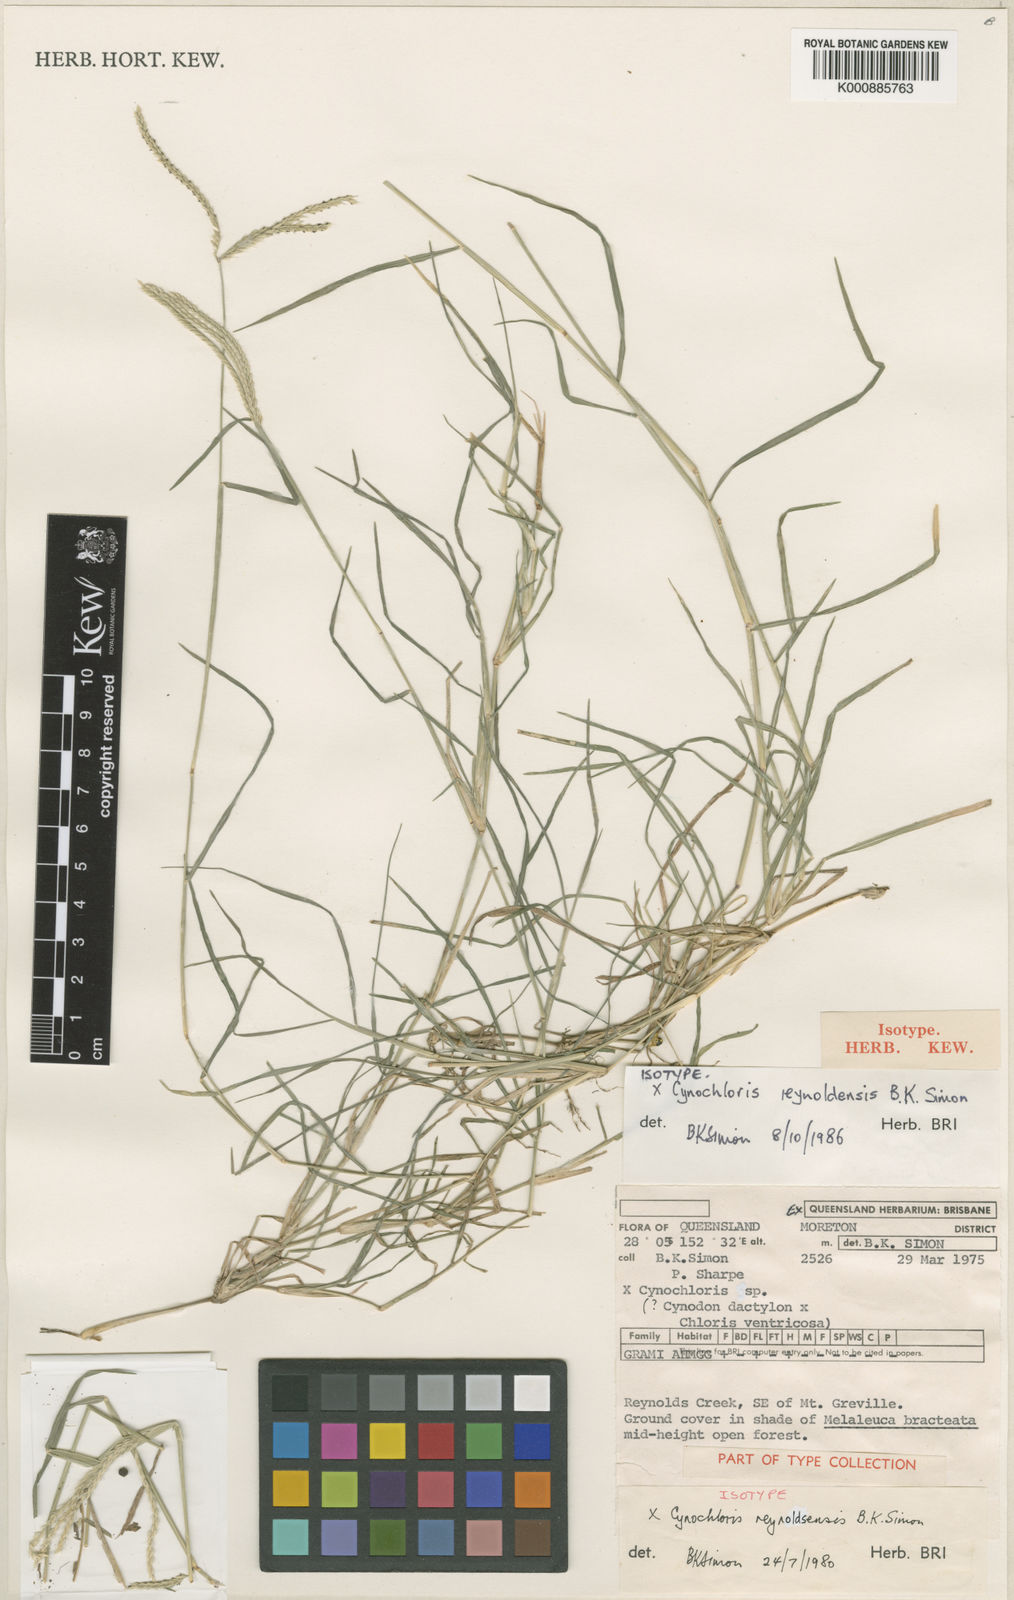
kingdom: Plantae
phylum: Tracheophyta
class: Liliopsida
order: Poales
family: Poaceae
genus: Cynochloris
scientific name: Cynochloris
